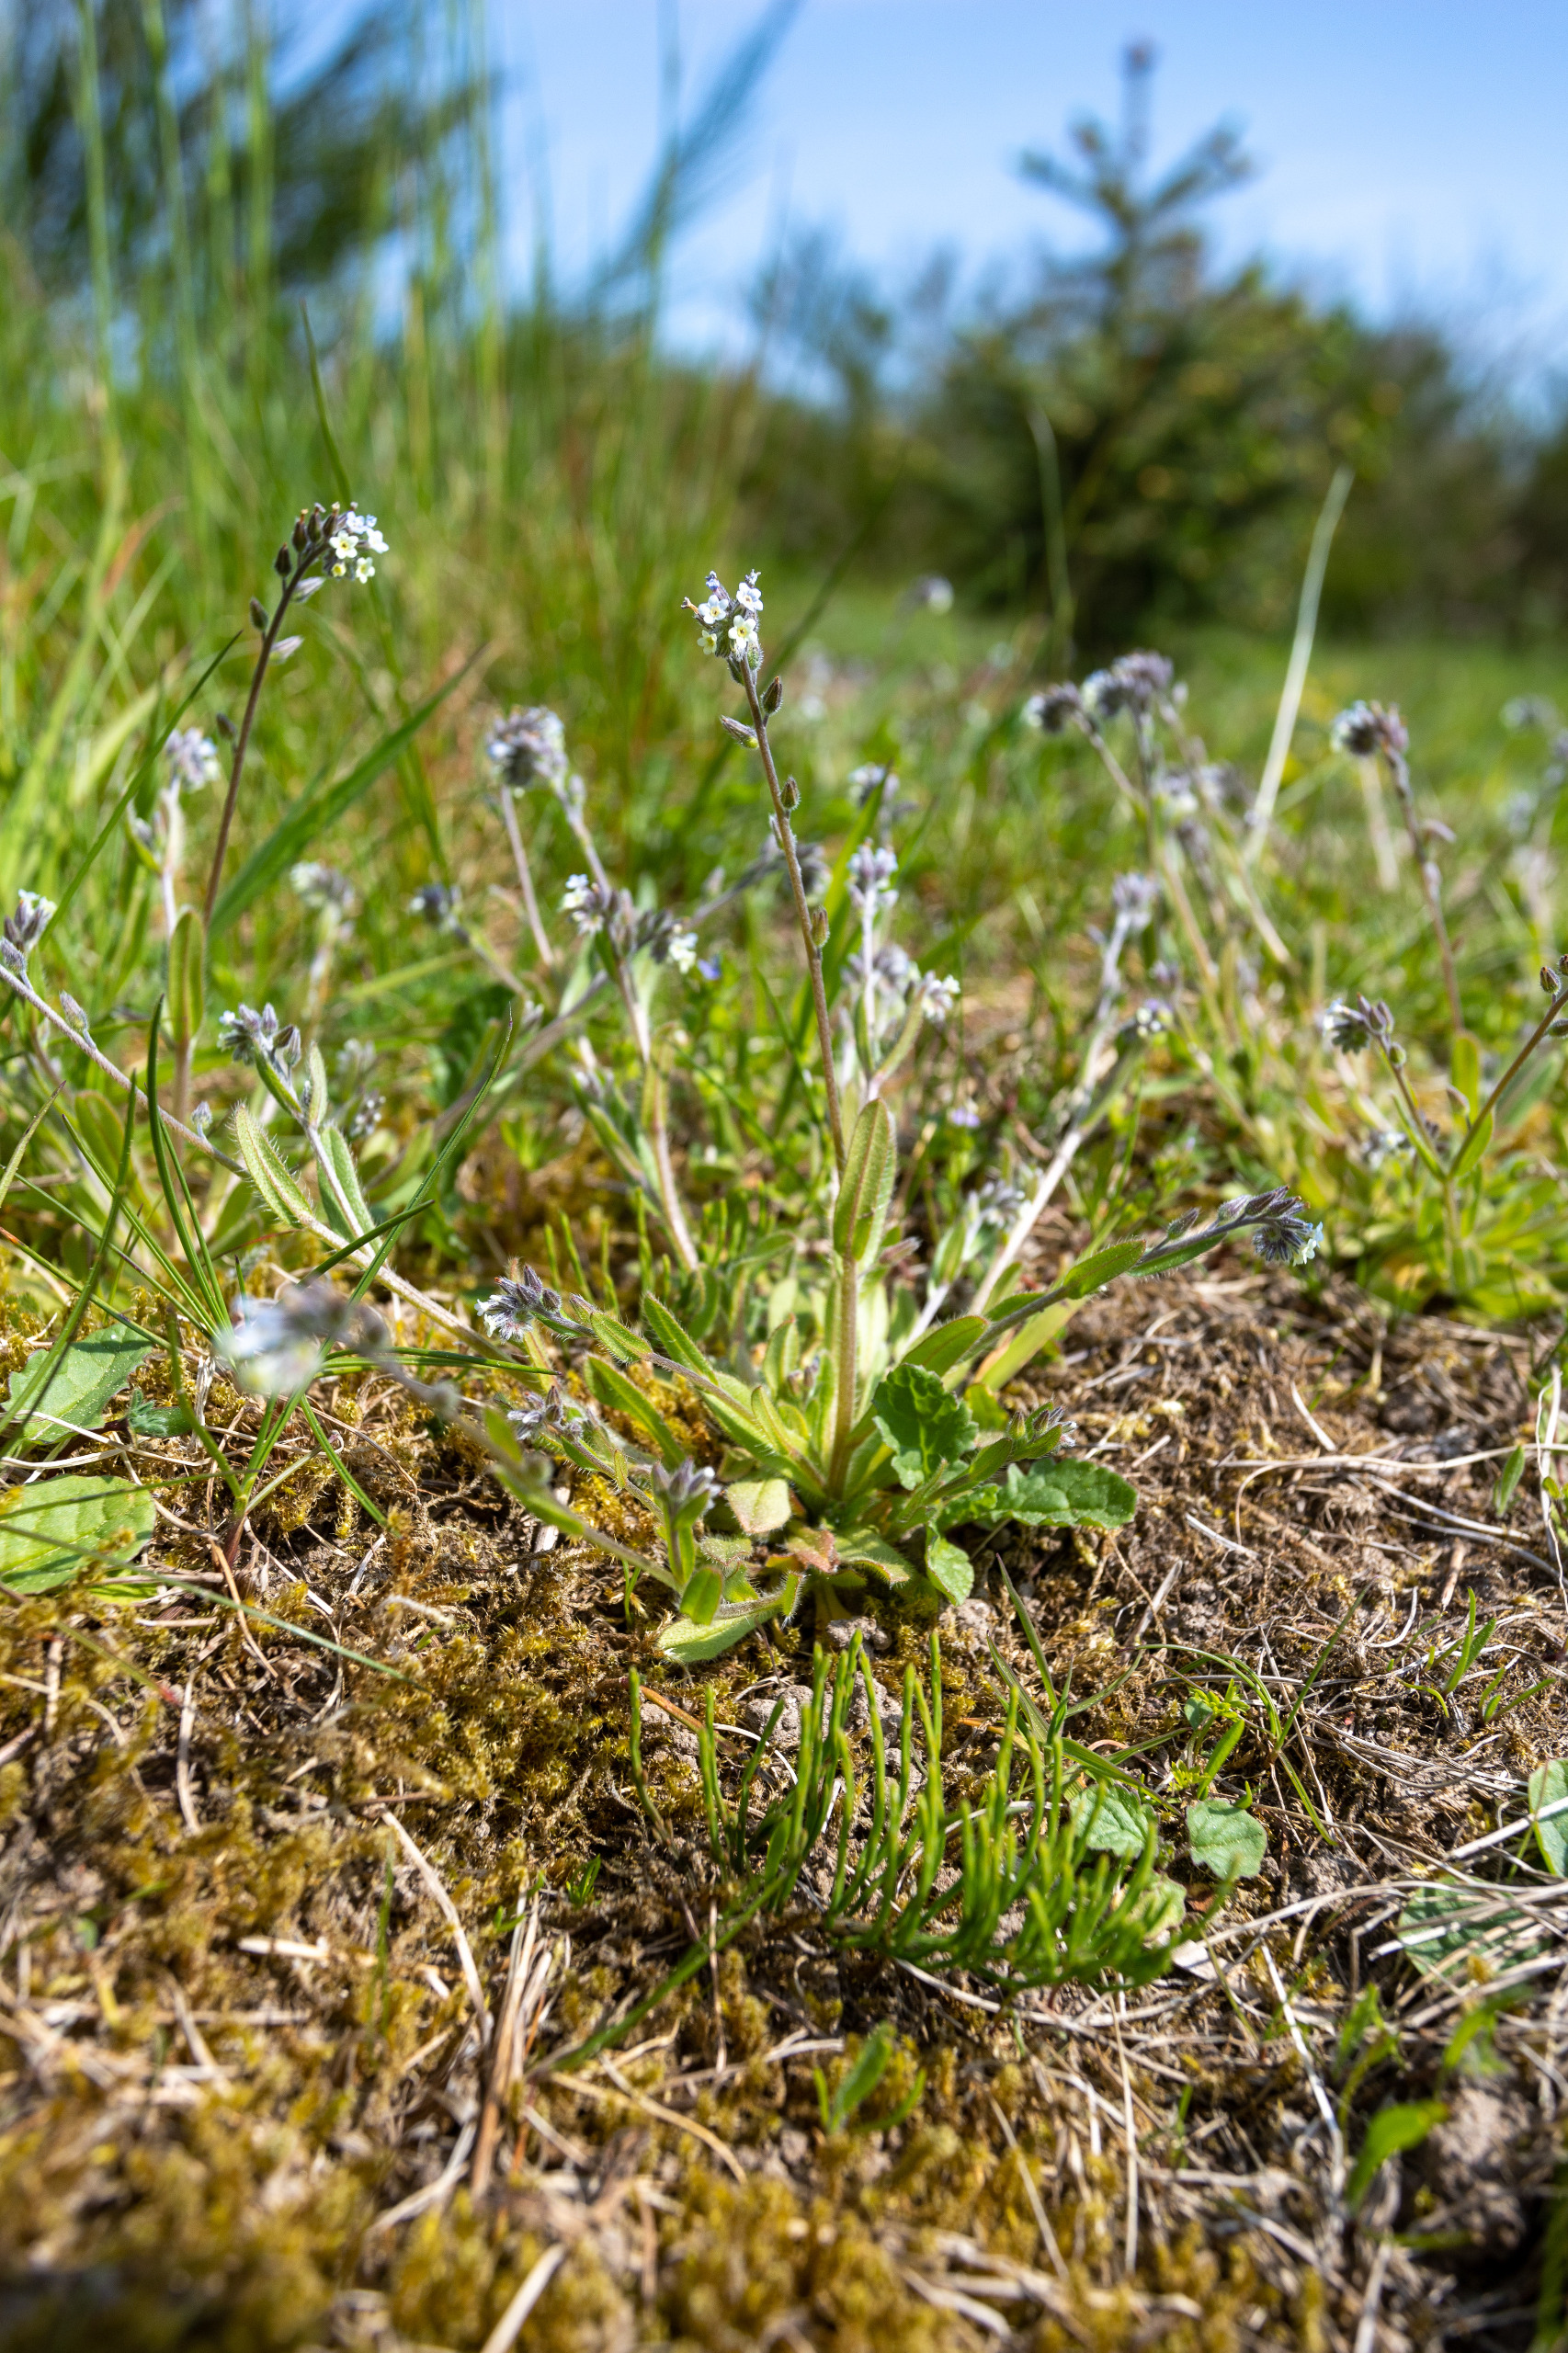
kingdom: Plantae
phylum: Tracheophyta
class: Magnoliopsida
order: Boraginales
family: Boraginaceae
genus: Myosotis
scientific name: Myosotis discolor
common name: Forskelligfarvet forglemmigej
